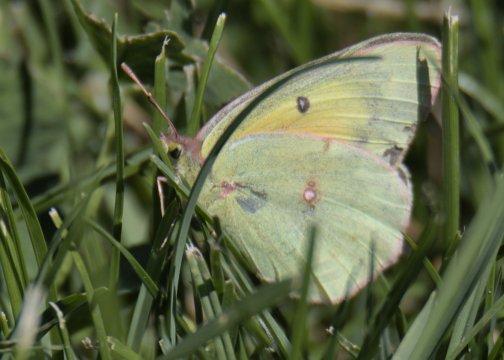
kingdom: Animalia
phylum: Arthropoda
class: Insecta
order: Lepidoptera
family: Pieridae
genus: Colias
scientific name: Colias
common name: Clouded Yellows
